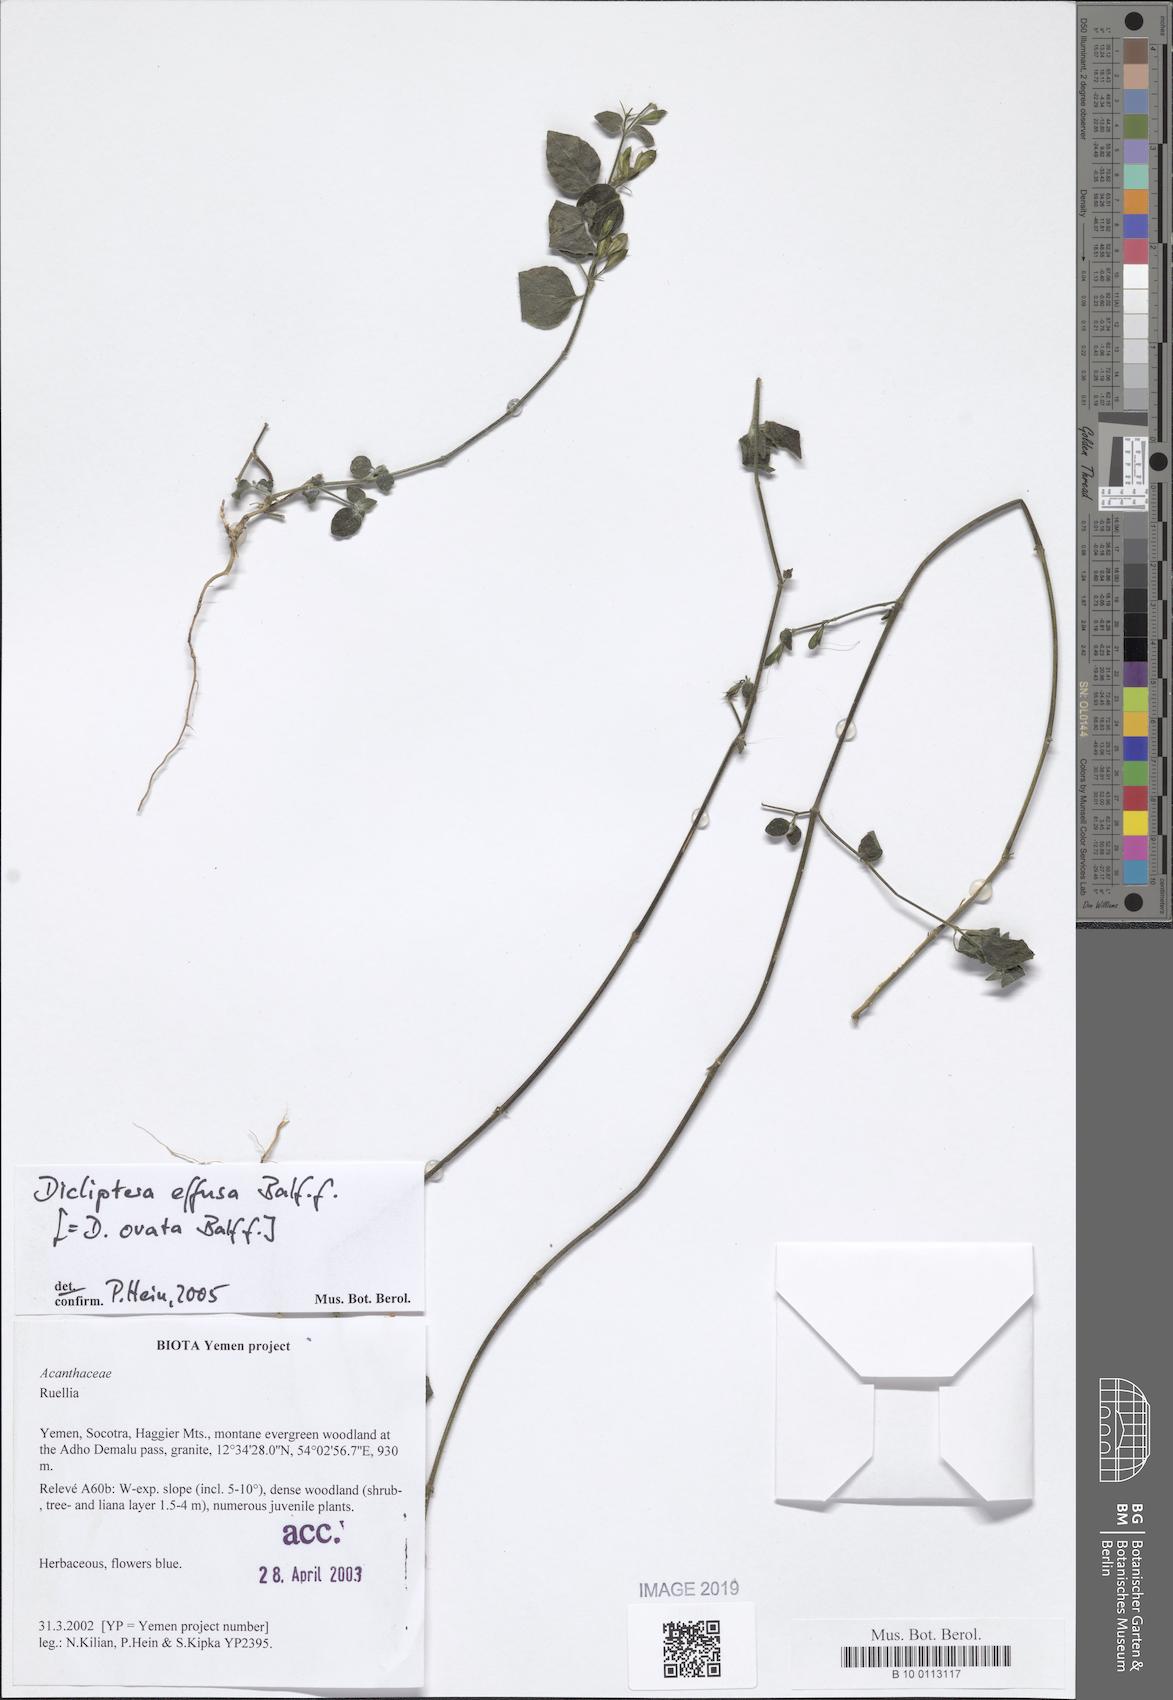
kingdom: Plantae
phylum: Tracheophyta
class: Magnoliopsida
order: Lamiales
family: Acanthaceae
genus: Dicliptera
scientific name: Dicliptera effusa
